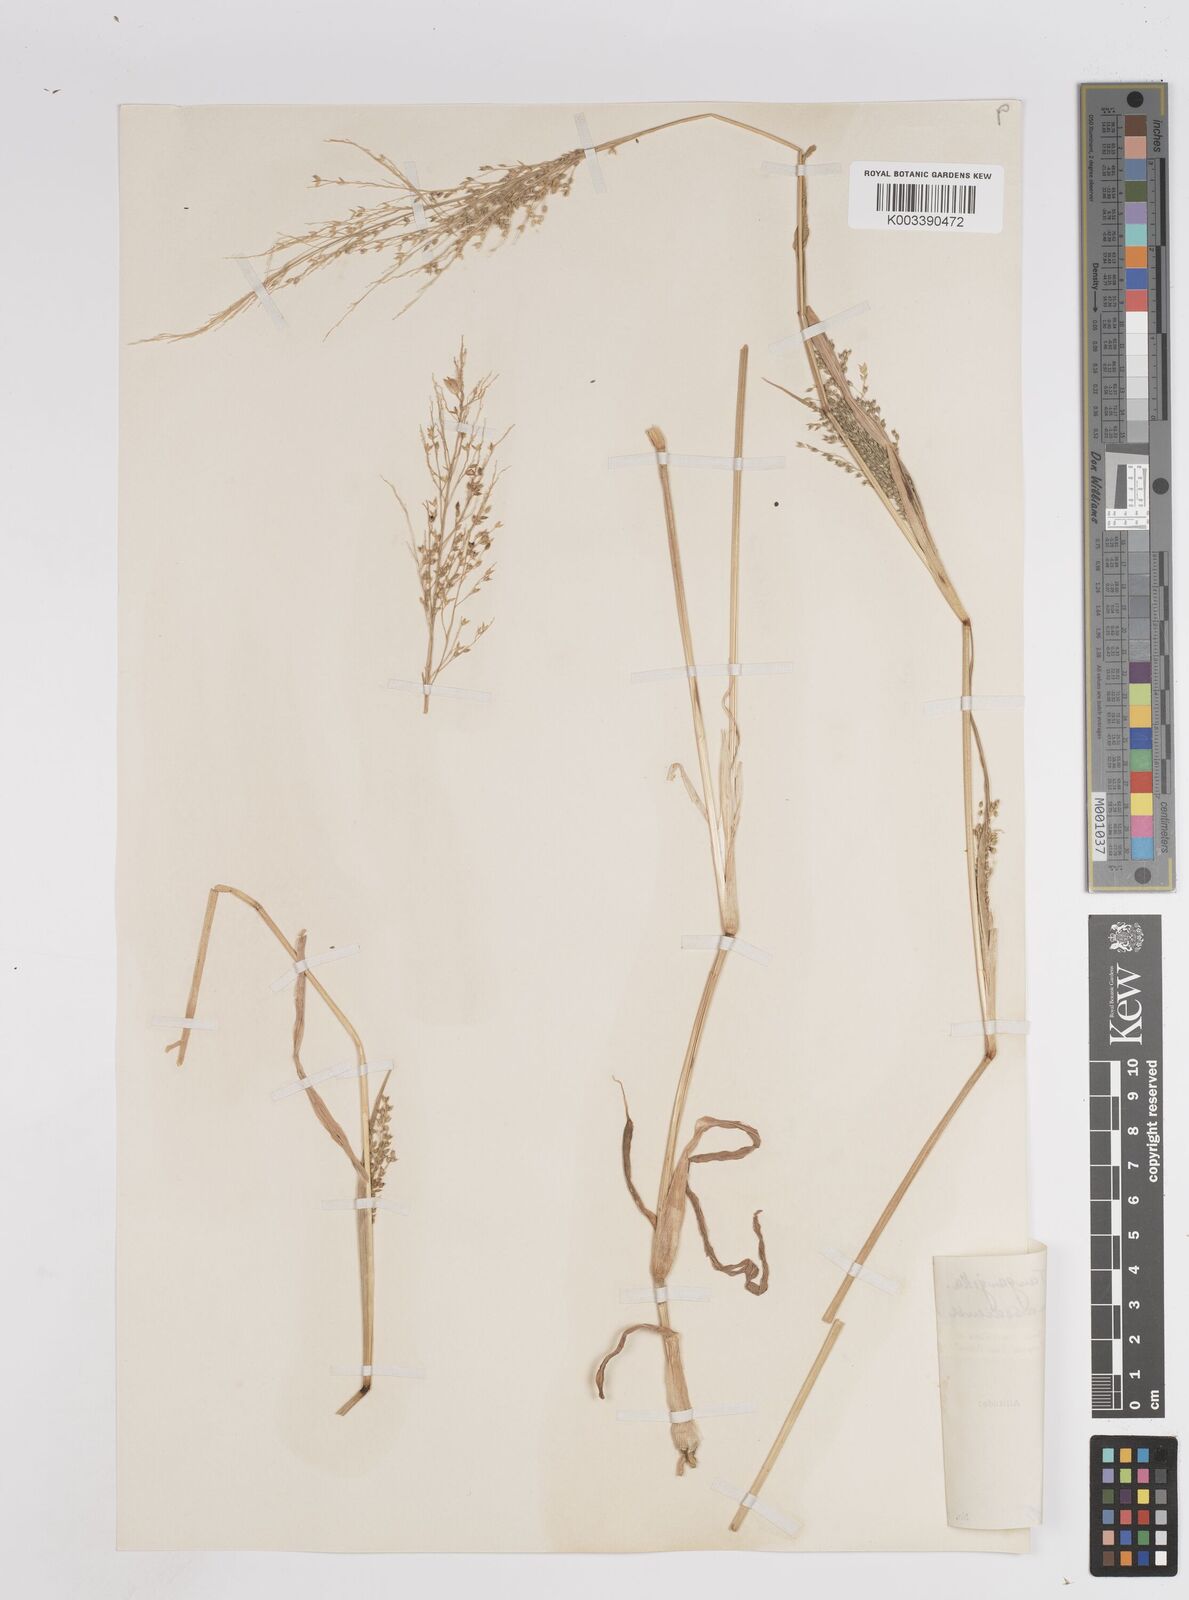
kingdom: Plantae
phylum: Tracheophyta
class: Liliopsida
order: Poales
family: Poaceae
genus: Panicum
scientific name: Panicum massaiense
